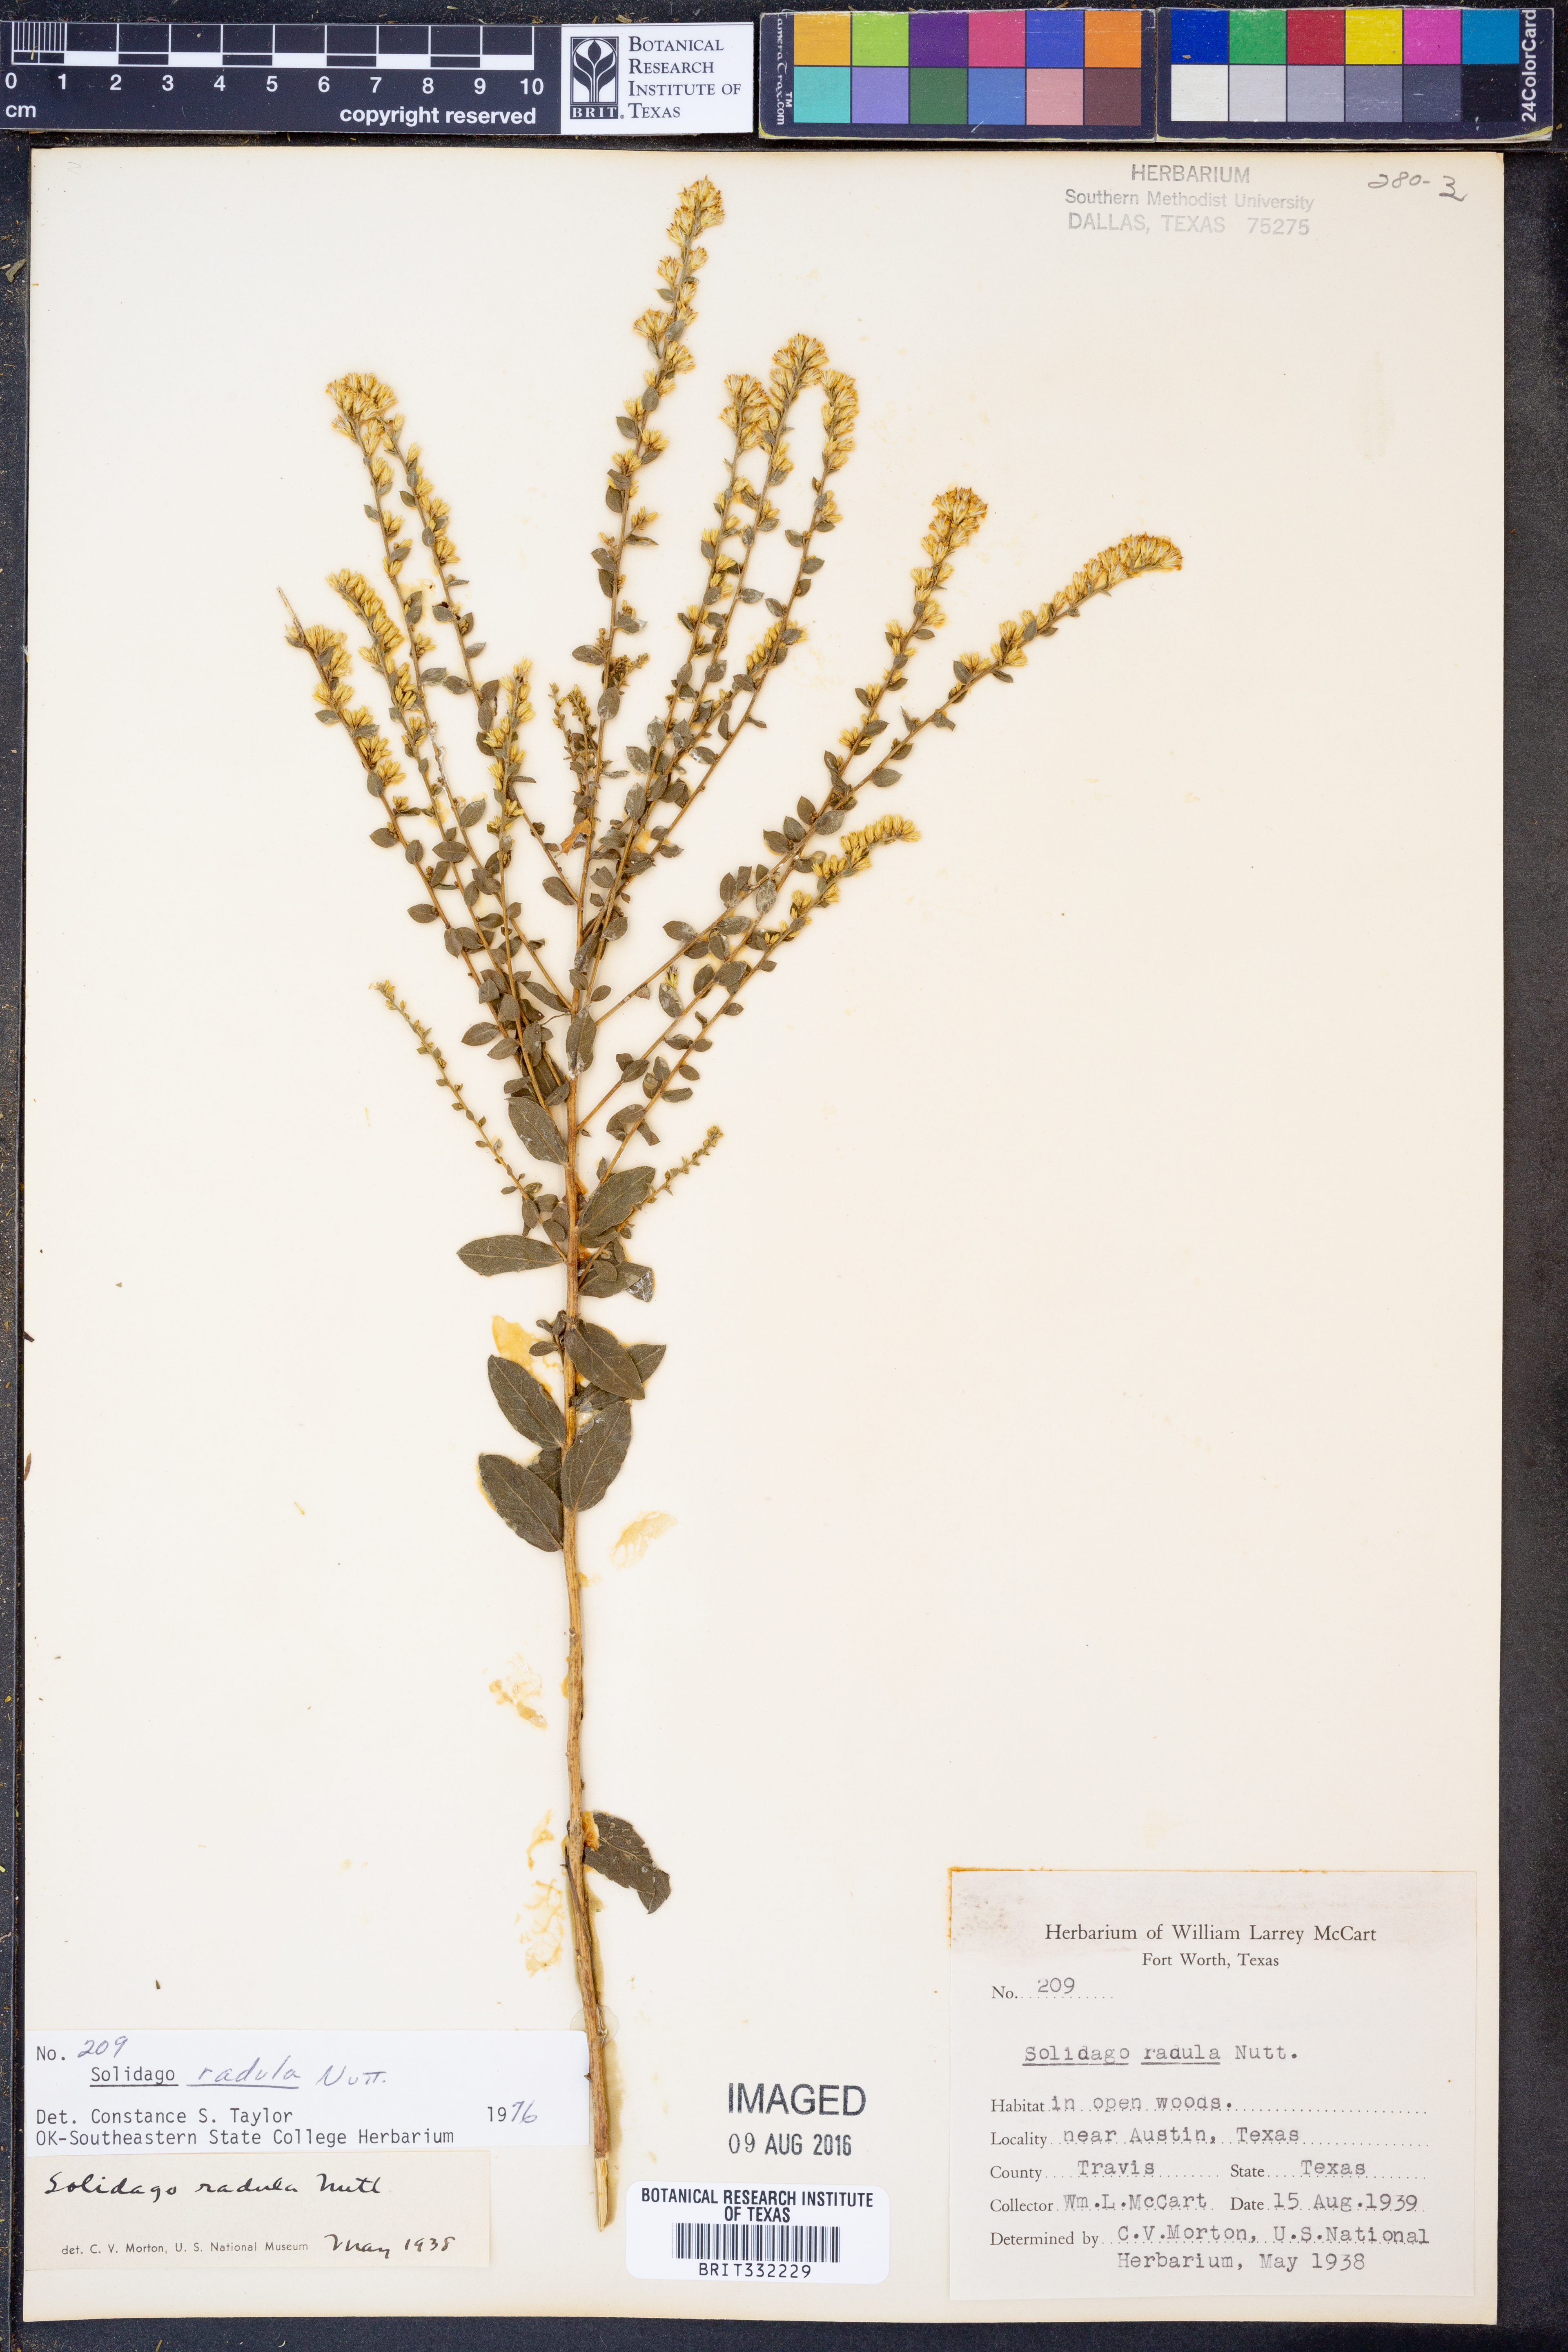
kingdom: Plantae
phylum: Tracheophyta
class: Magnoliopsida
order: Asterales
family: Asteraceae
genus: Solidago
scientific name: Solidago radula
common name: Western rough goldenrod
